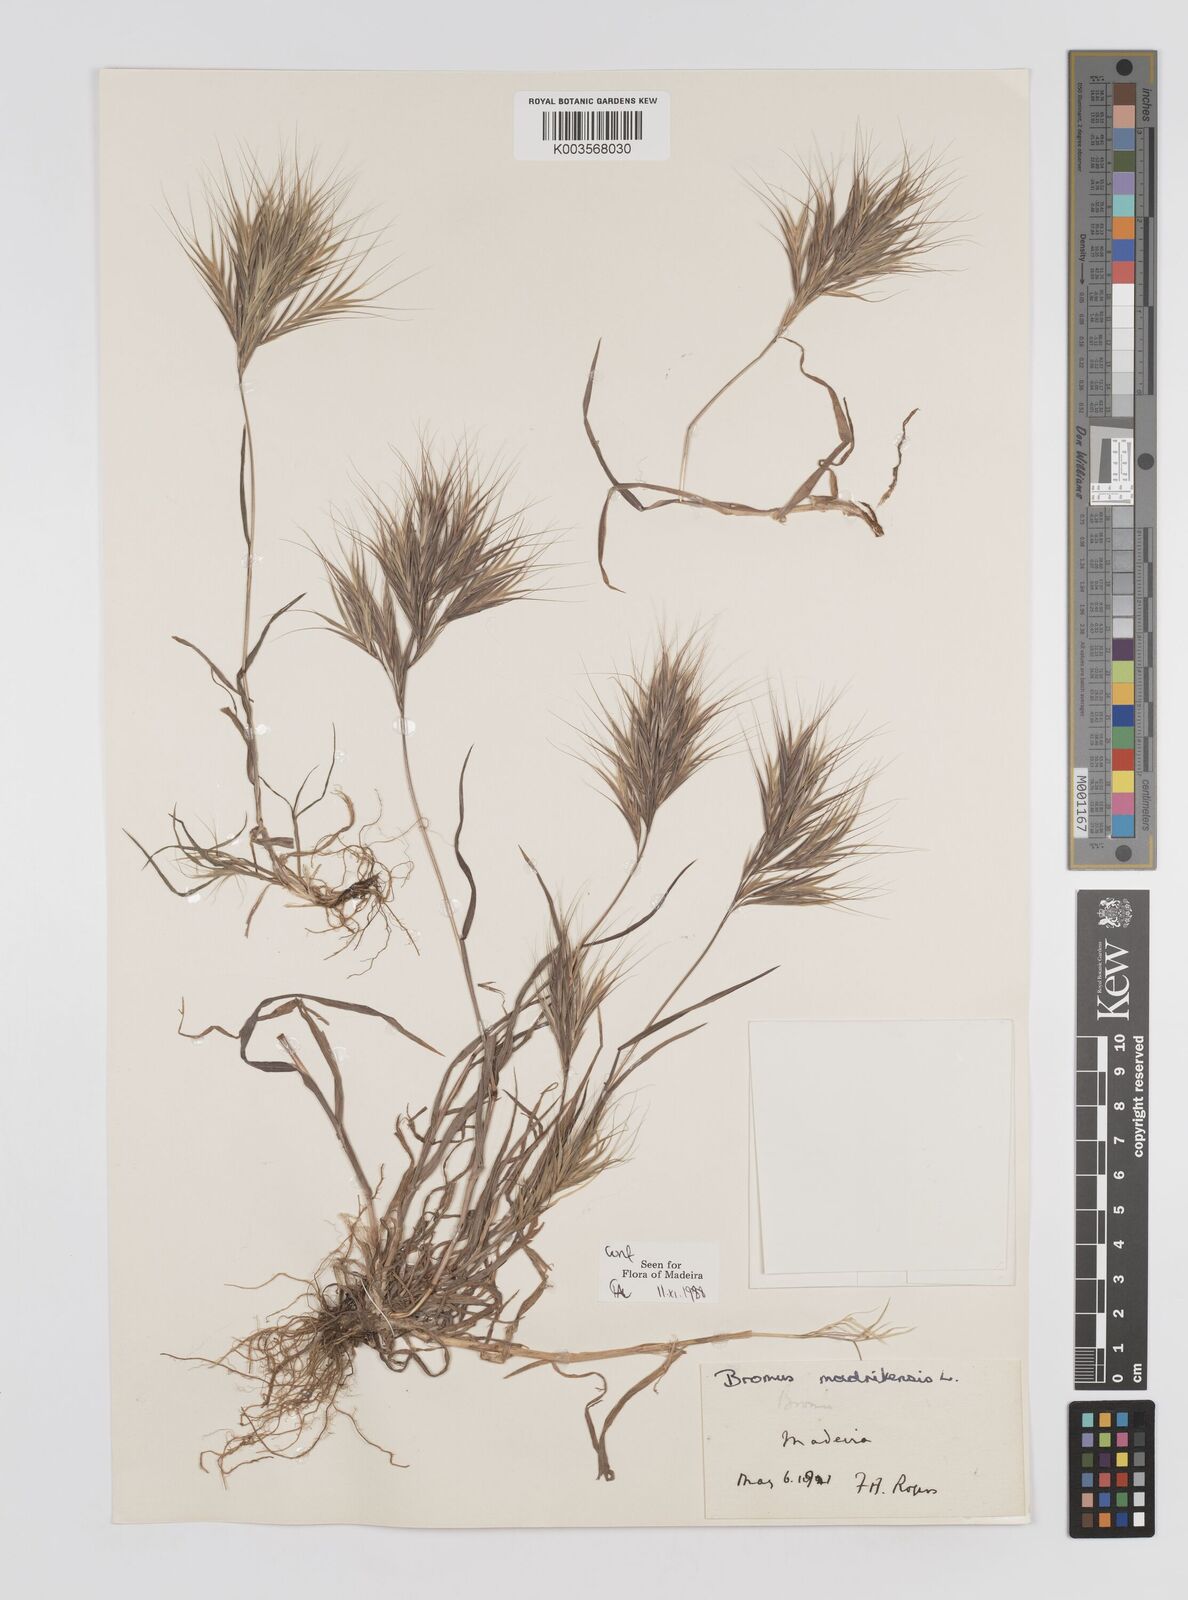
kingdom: Plantae
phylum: Tracheophyta
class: Liliopsida
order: Poales
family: Poaceae
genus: Bromus
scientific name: Bromus
